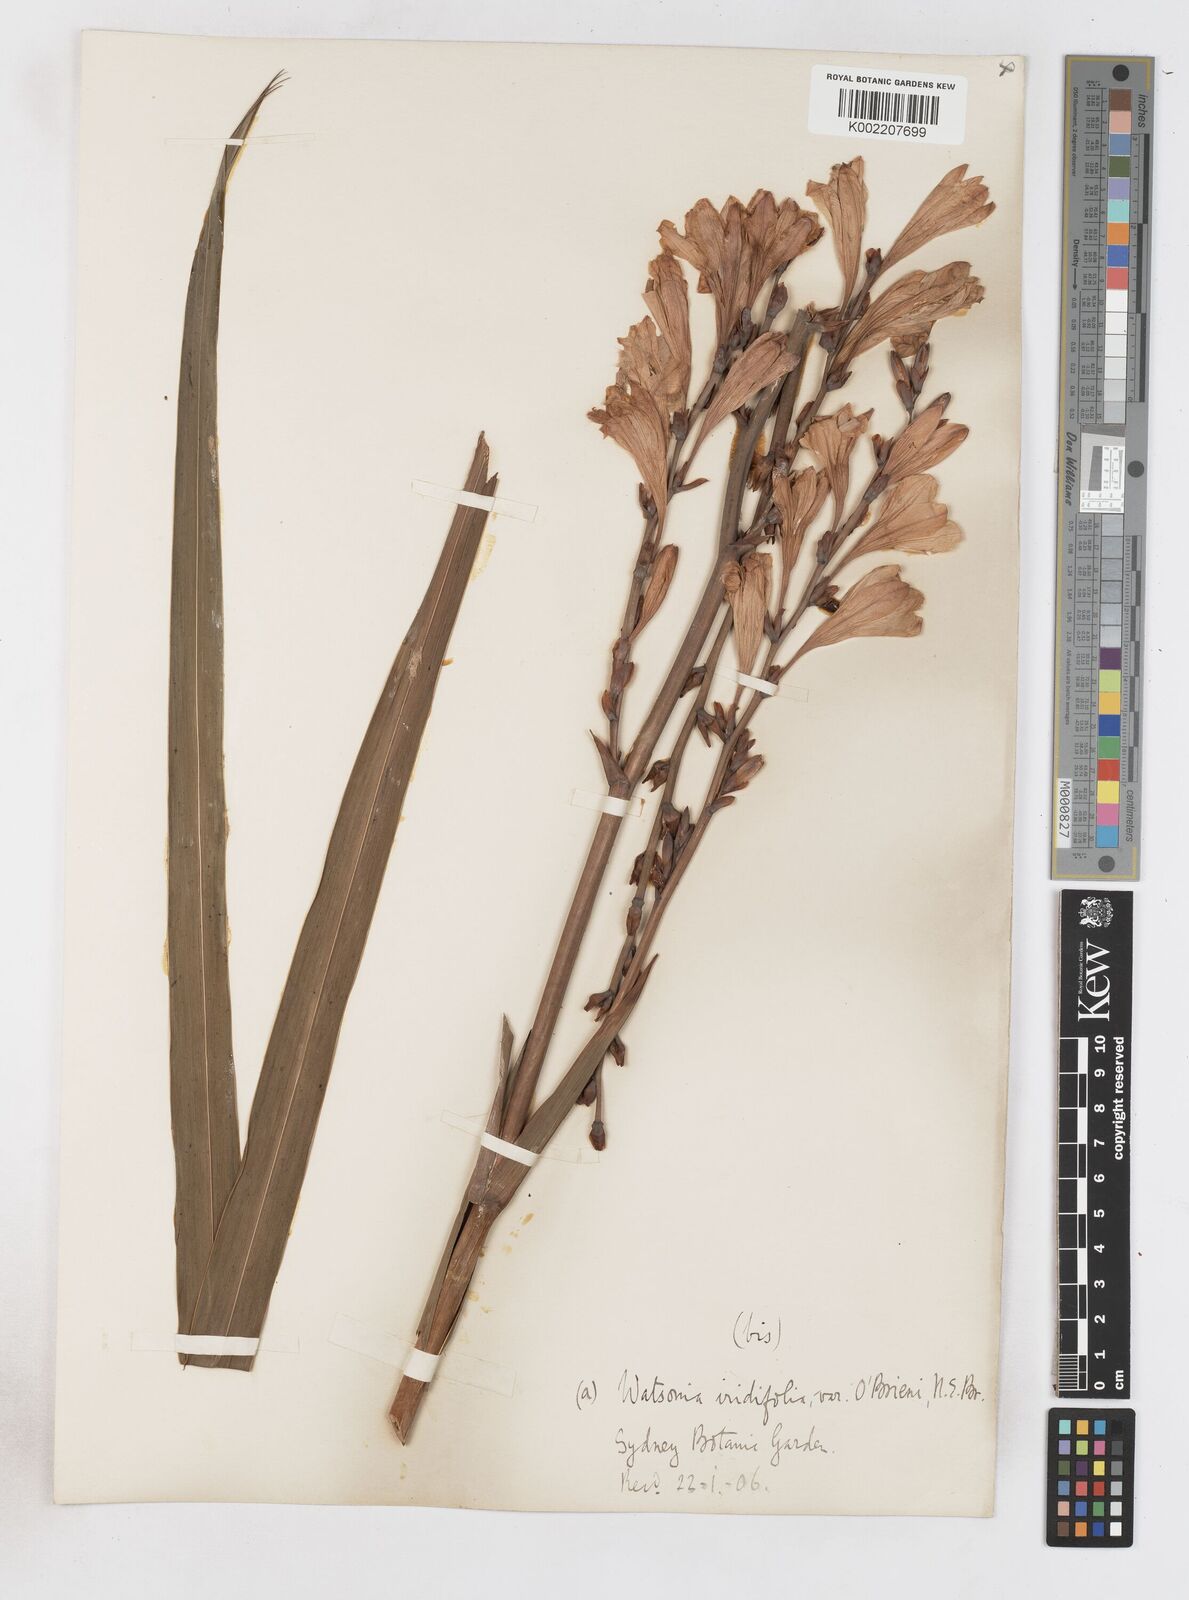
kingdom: Plantae
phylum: Tracheophyta
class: Liliopsida
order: Asparagales
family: Iridaceae
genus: Watsonia
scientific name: Watsonia borbonica
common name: Bugle-lily
